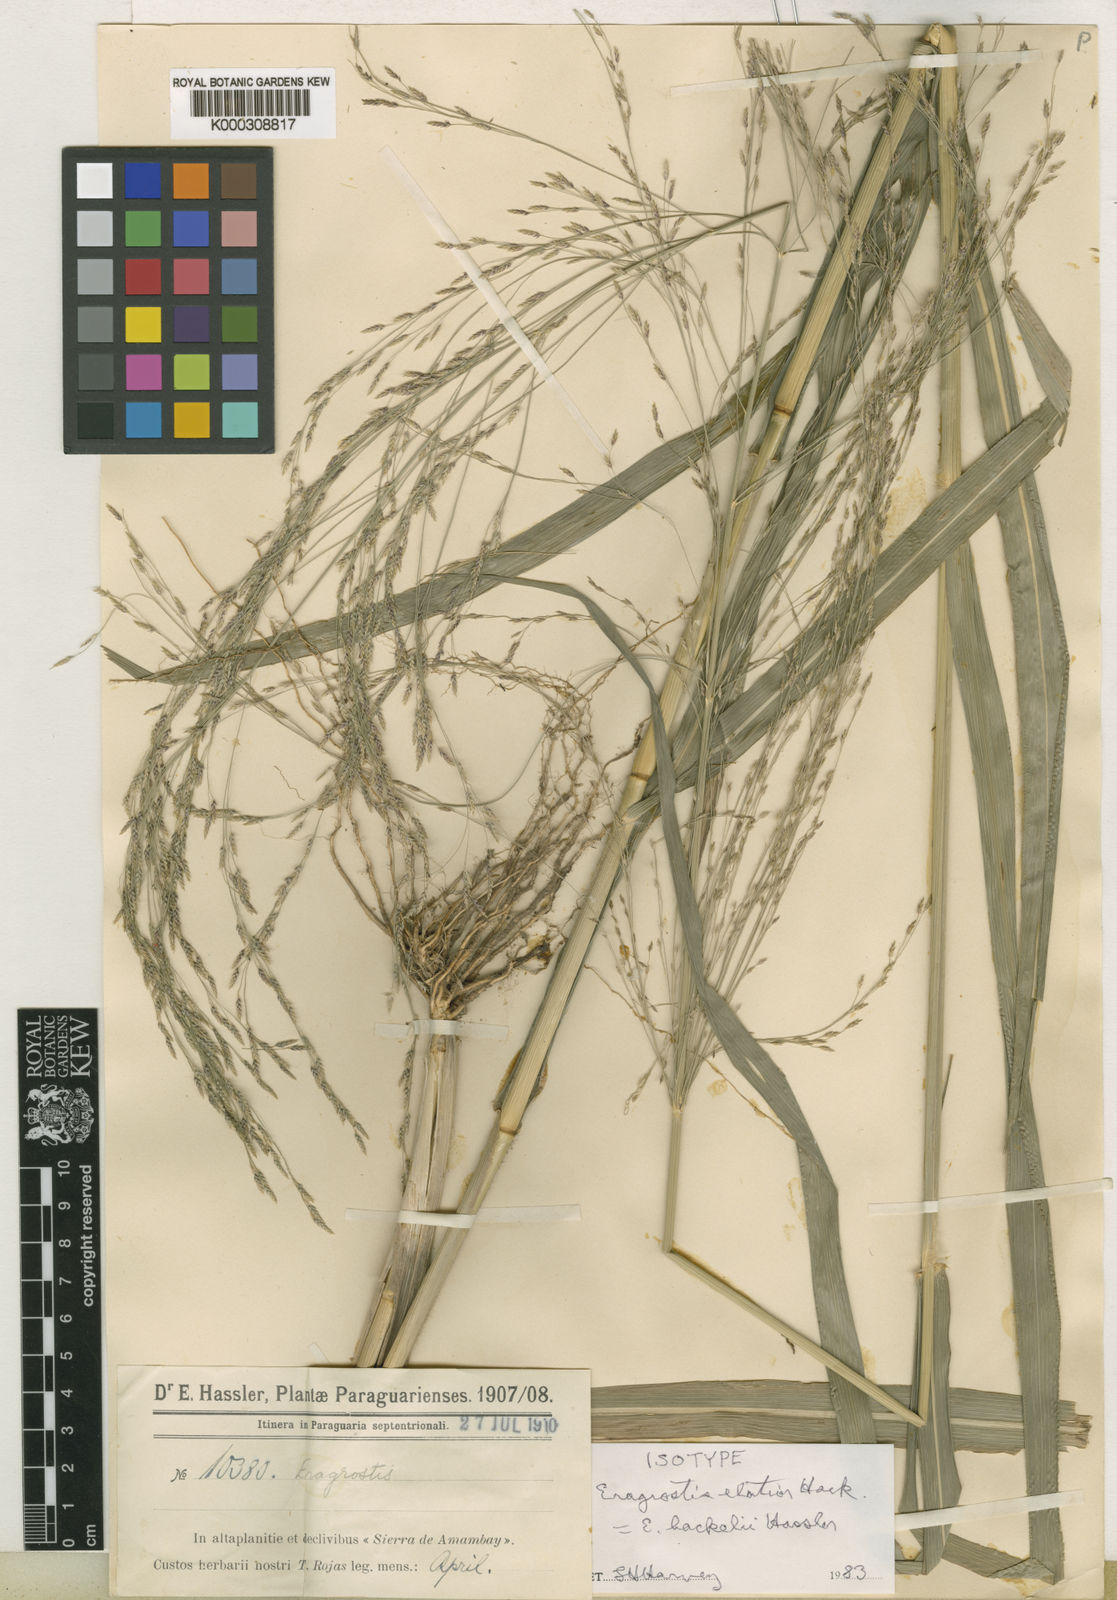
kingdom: Plantae
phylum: Tracheophyta
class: Liliopsida
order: Poales
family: Poaceae
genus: Eragrostis
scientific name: Eragrostis bahiensis
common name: Bahia lovegrass
